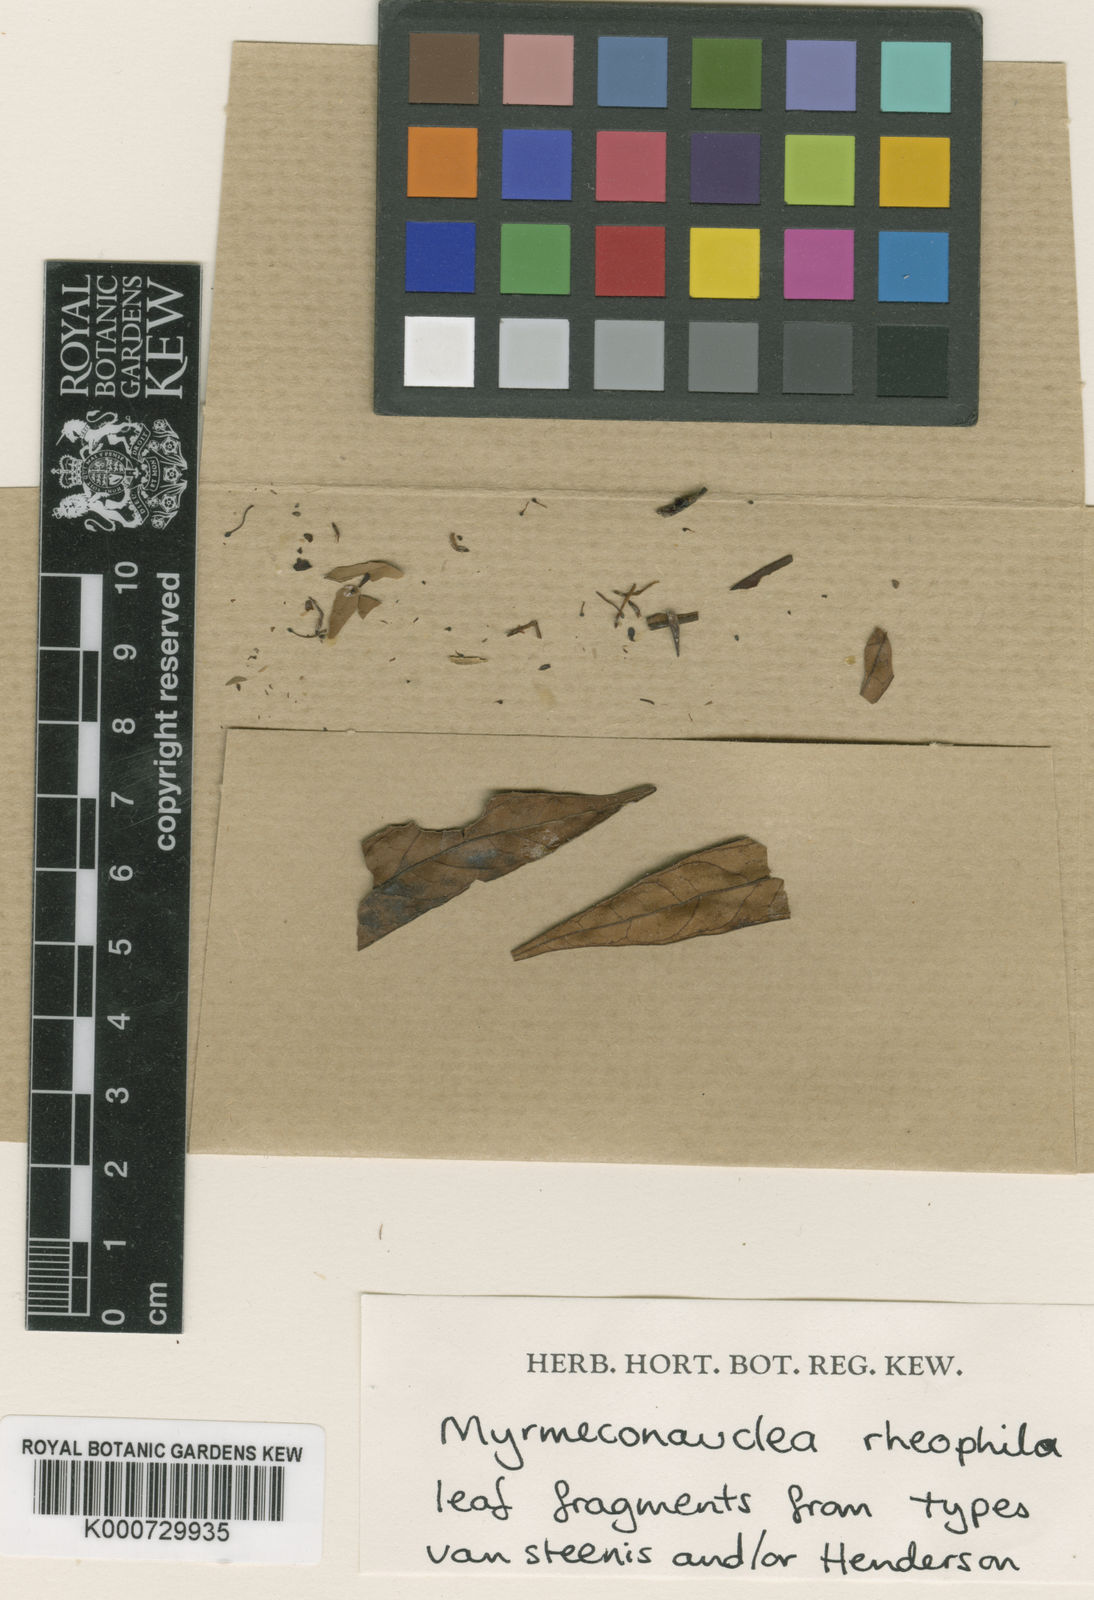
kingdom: Plantae
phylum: Tracheophyta
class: Magnoliopsida
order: Gentianales
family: Rubiaceae
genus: Myrmeconauclea
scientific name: Myrmeconauclea rheophila
